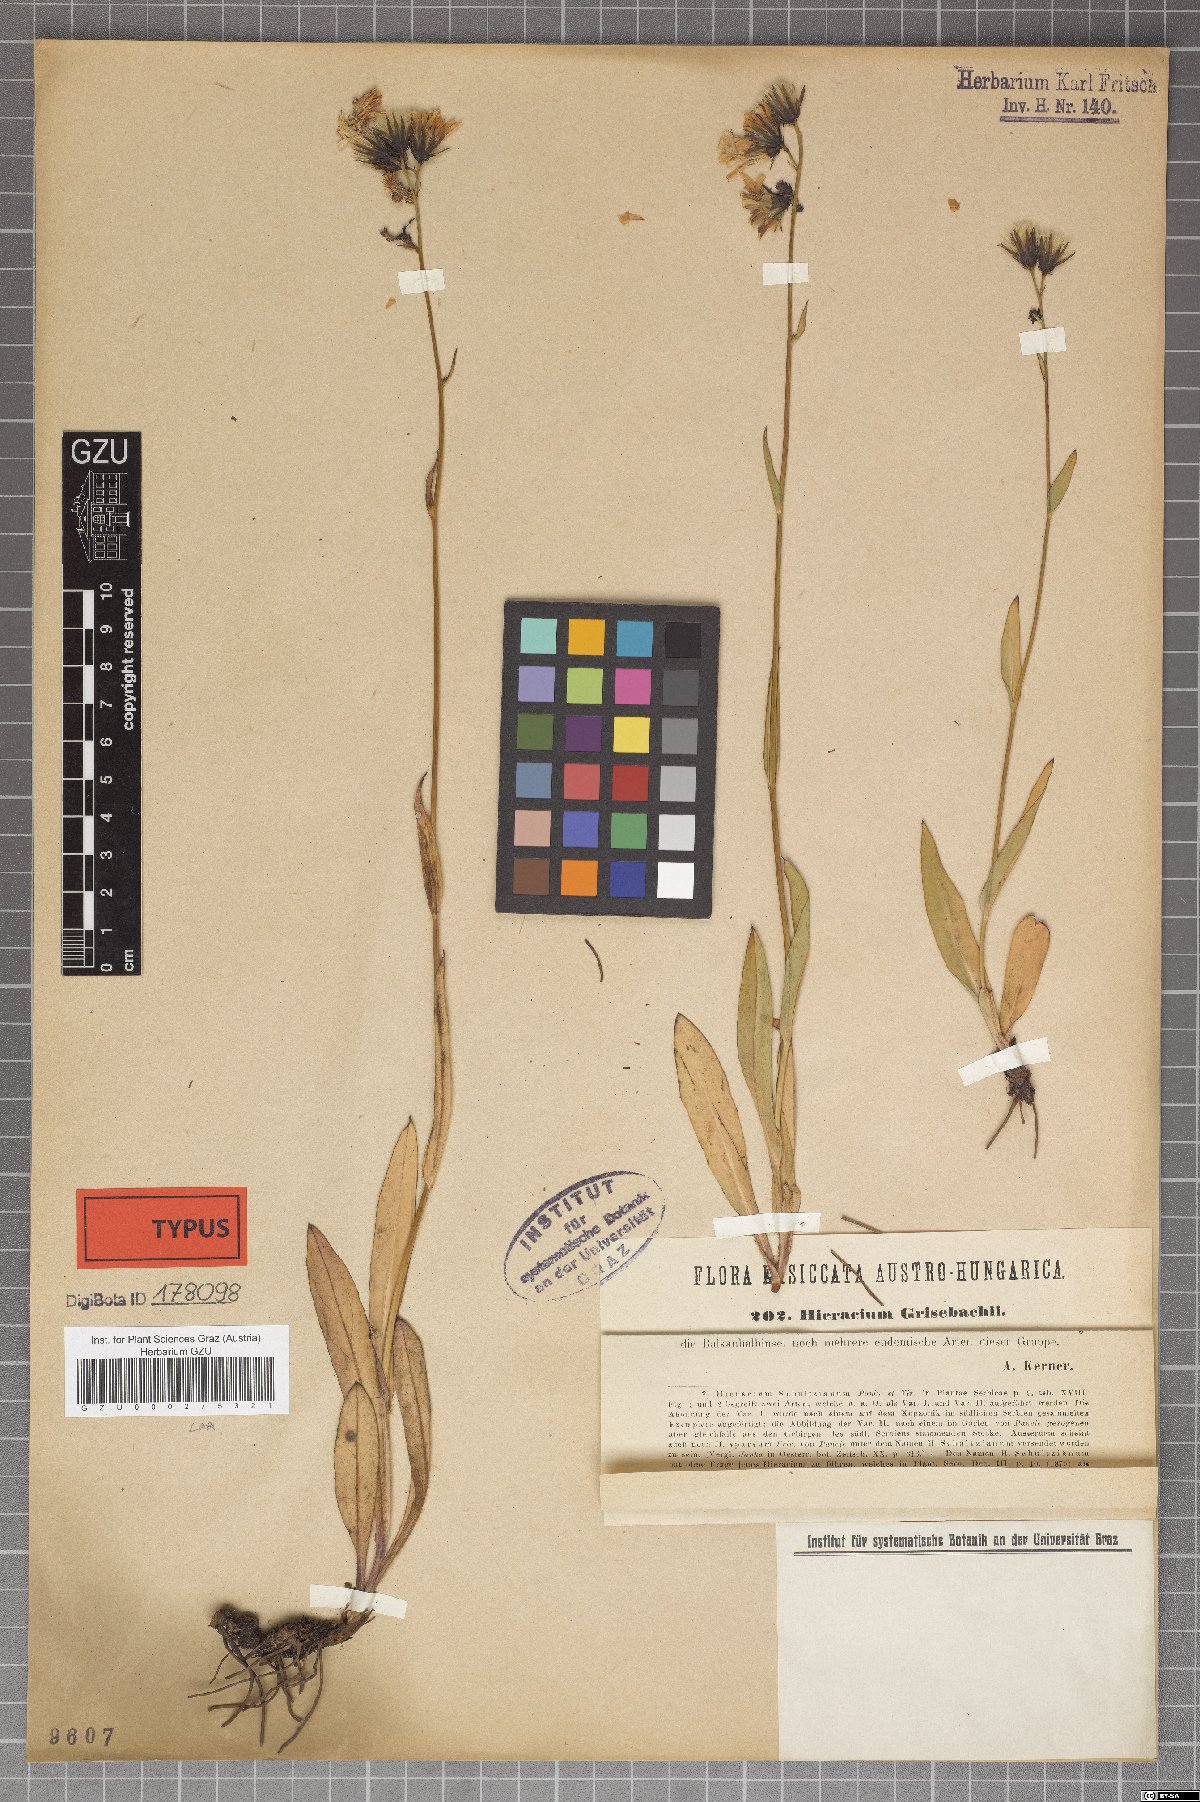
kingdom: Plantae
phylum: Tracheophyta
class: Magnoliopsida
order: Asterales
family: Asteraceae
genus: Hieracium
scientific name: Hieracium sparsum
